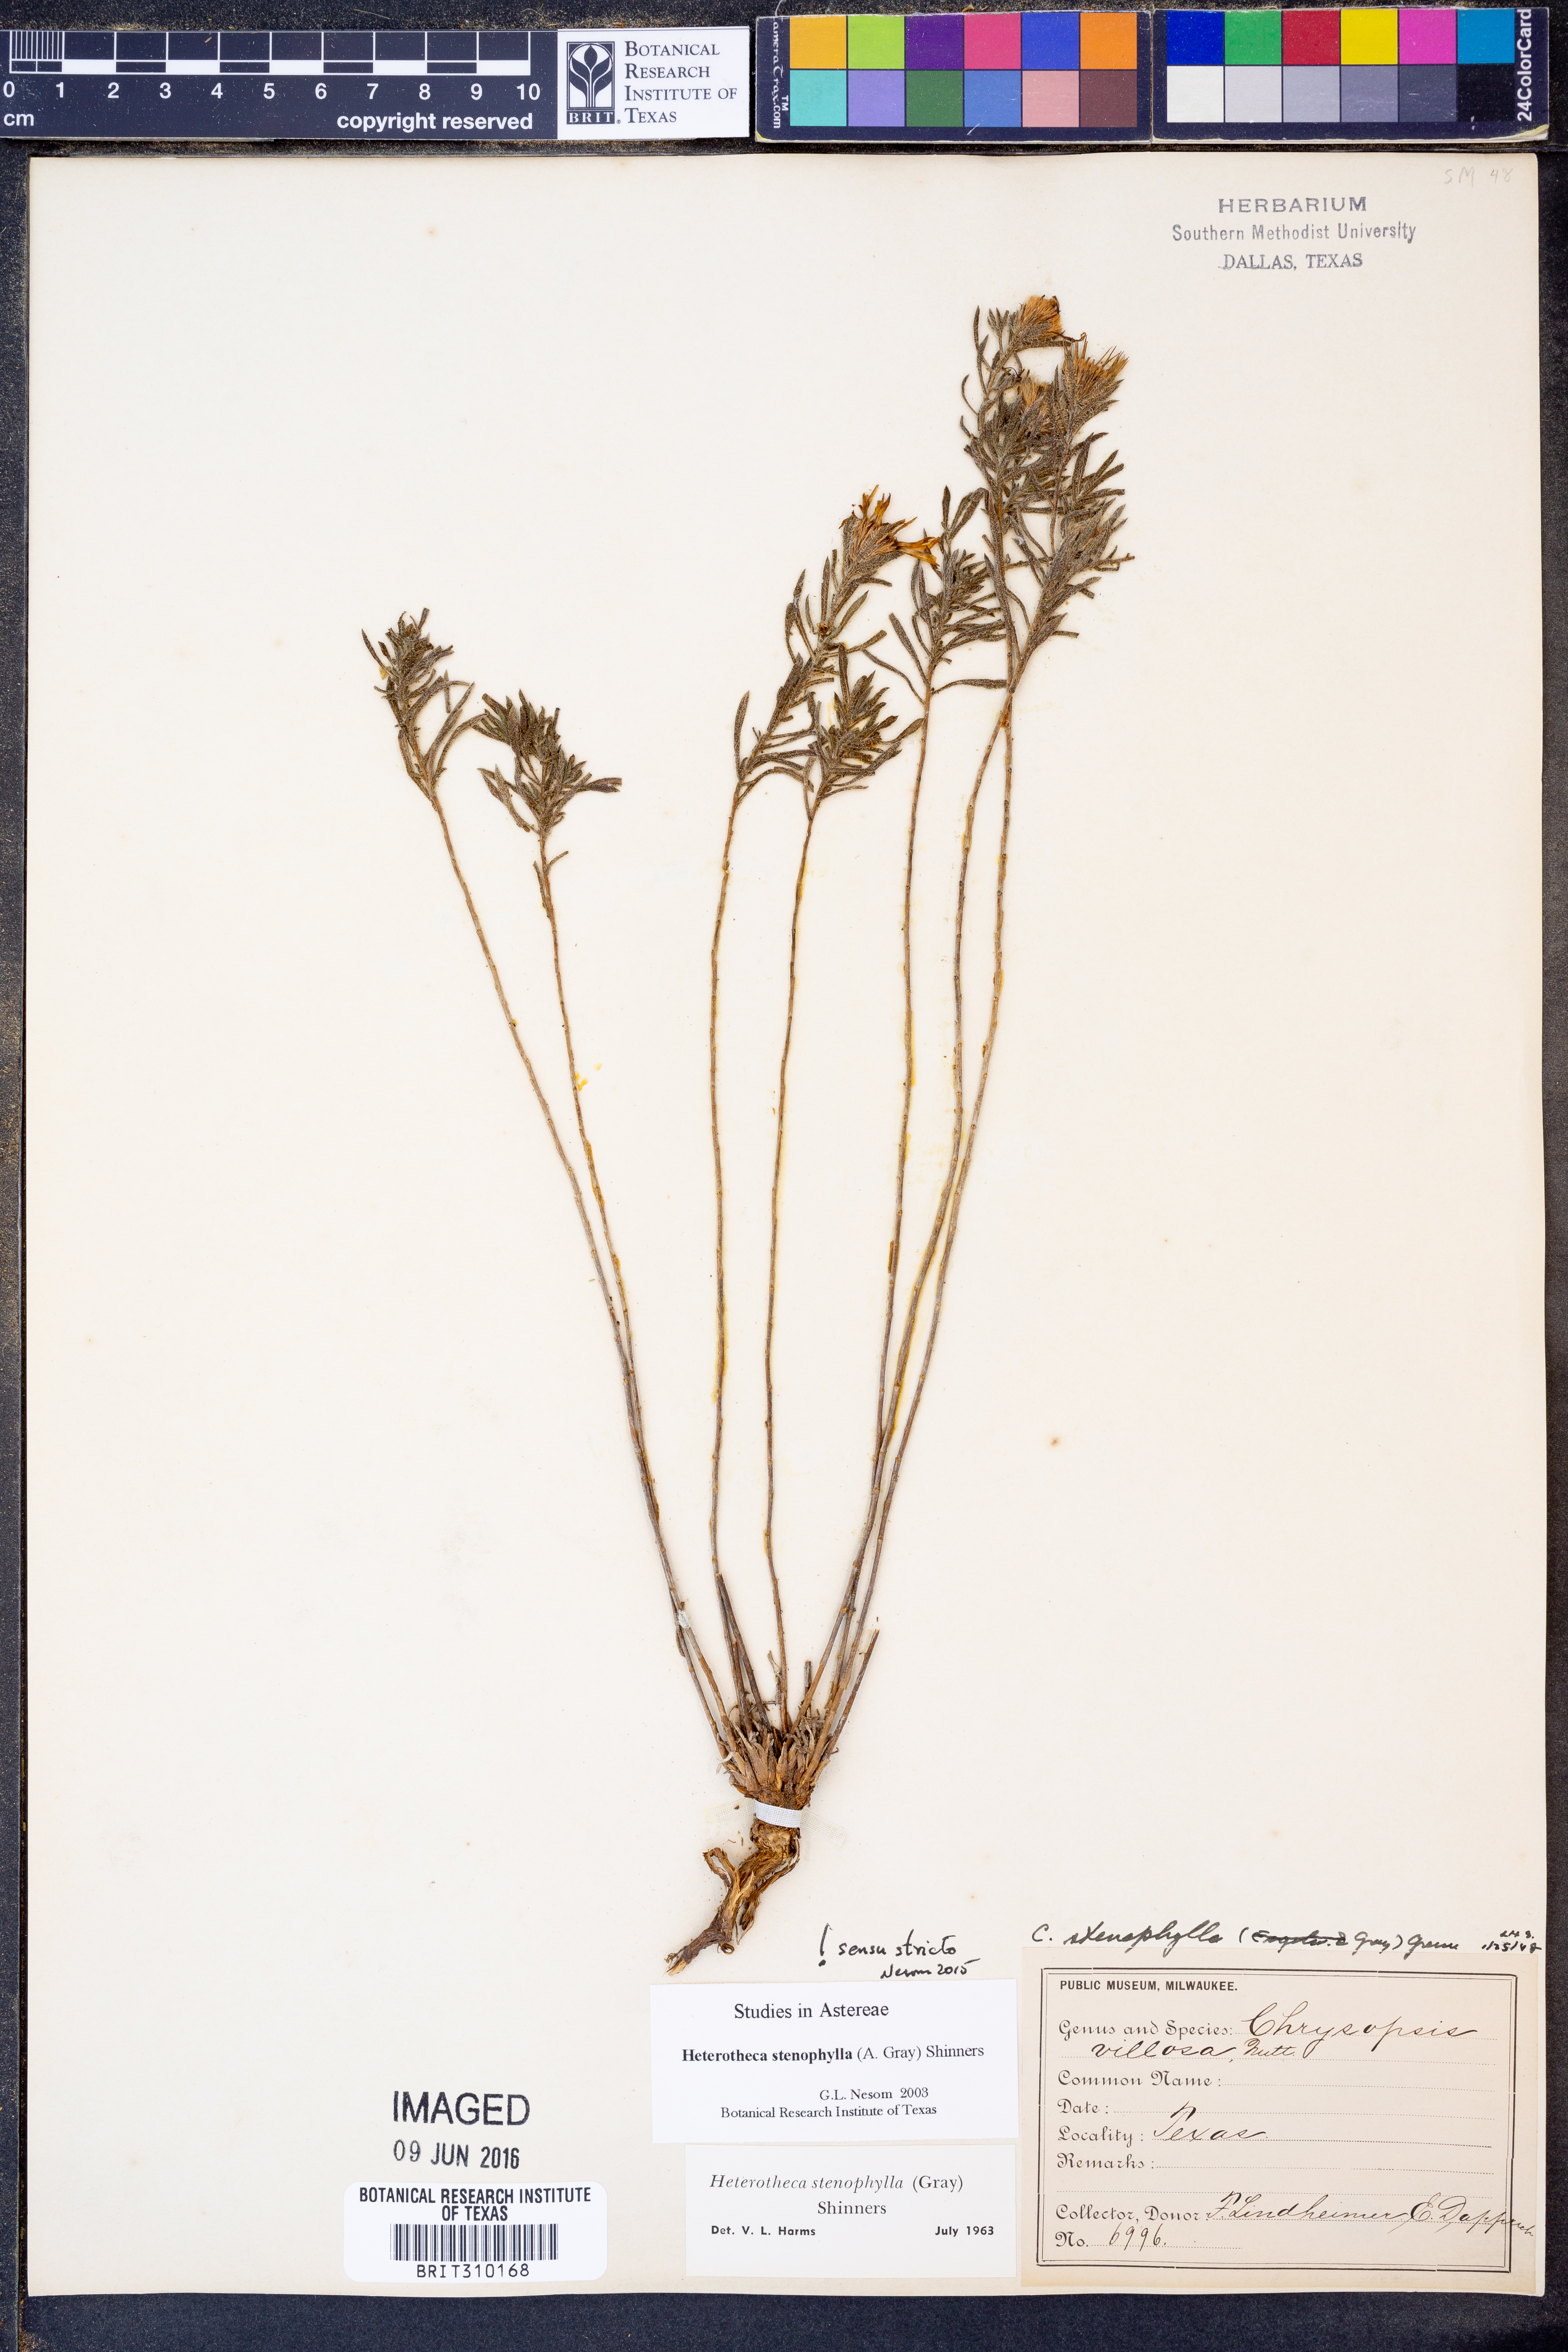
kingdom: Plantae
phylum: Tracheophyta
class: Magnoliopsida
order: Asterales
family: Asteraceae
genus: Heterotheca
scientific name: Heterotheca stenophylla
